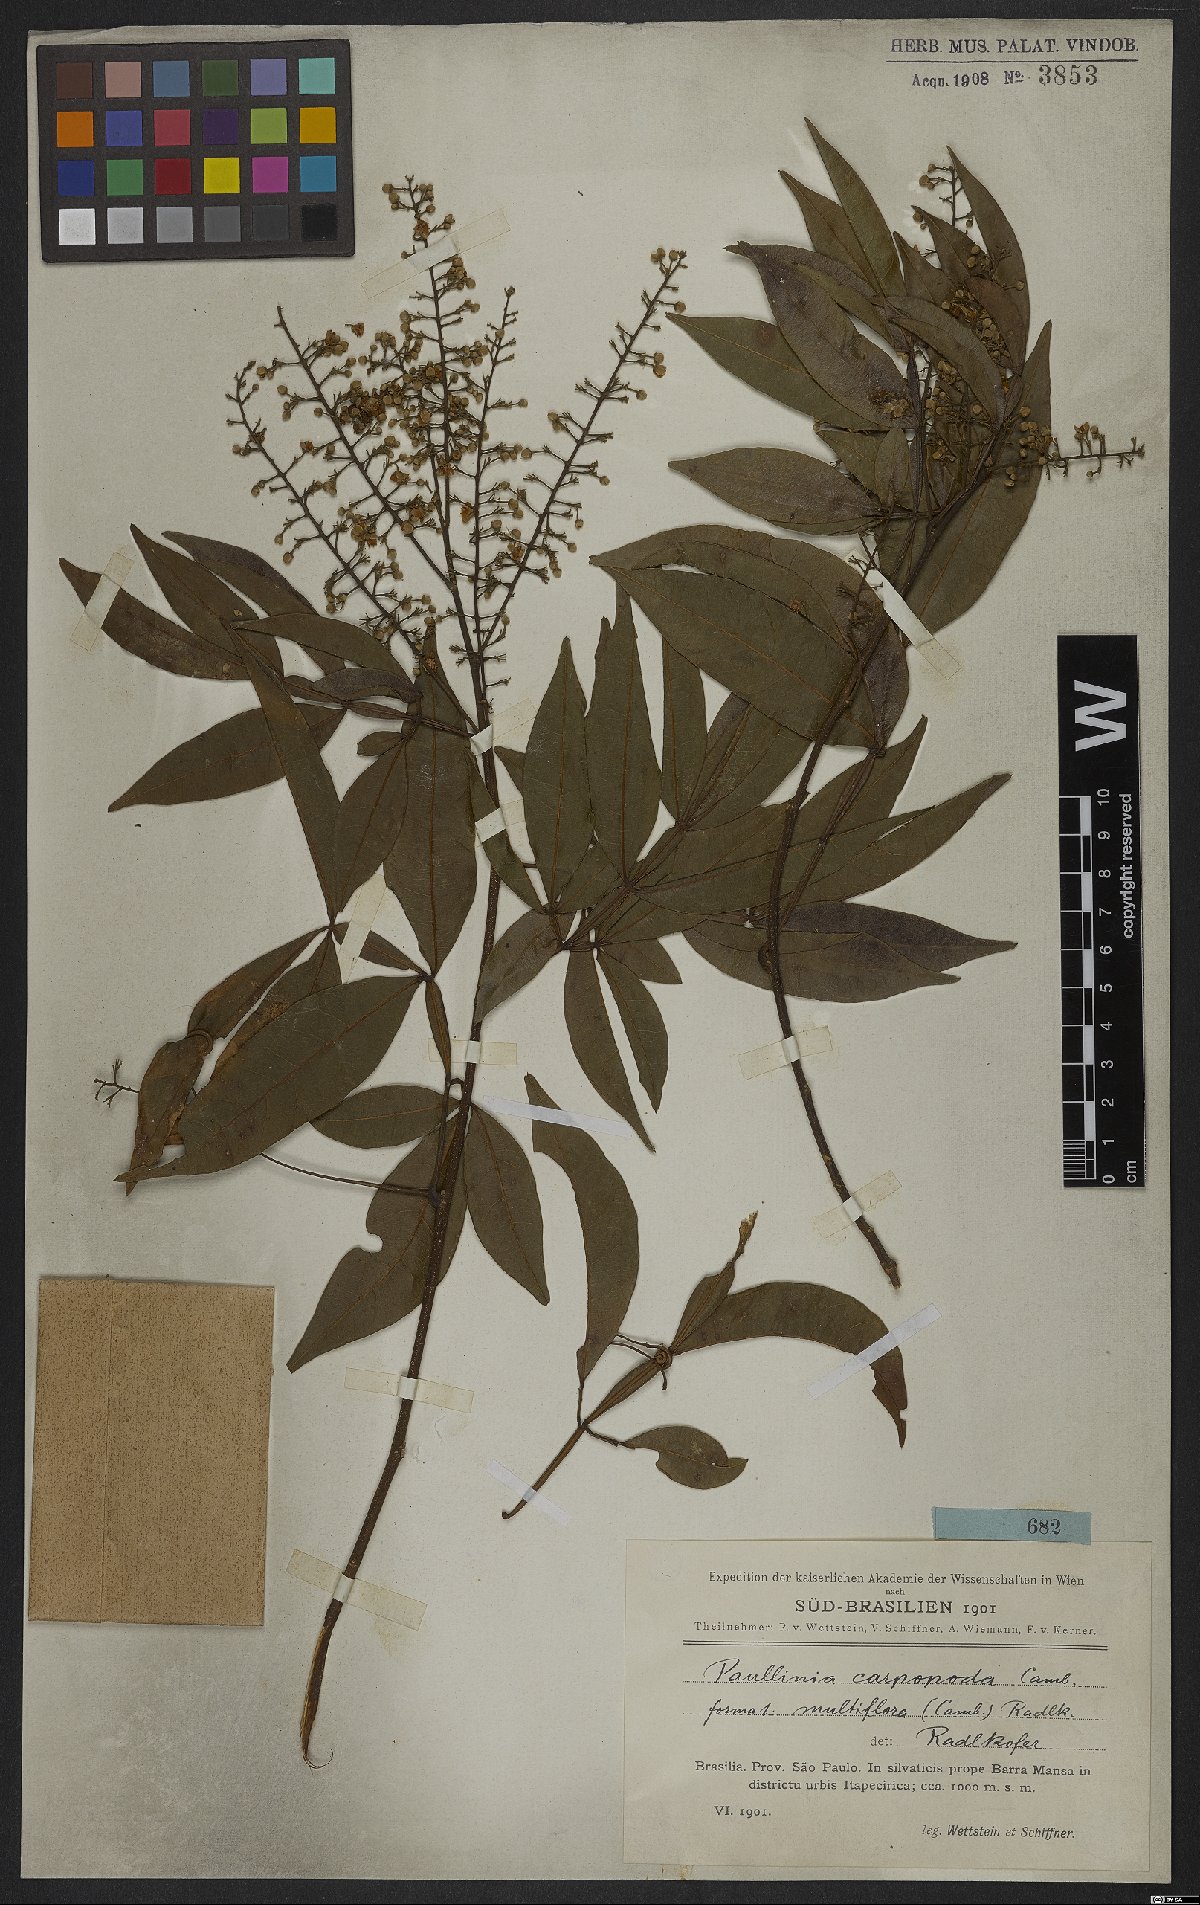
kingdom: Plantae
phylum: Tracheophyta
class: Magnoliopsida
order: Sapindales
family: Sapindaceae
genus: Paullinia
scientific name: Paullinia carpopoda
